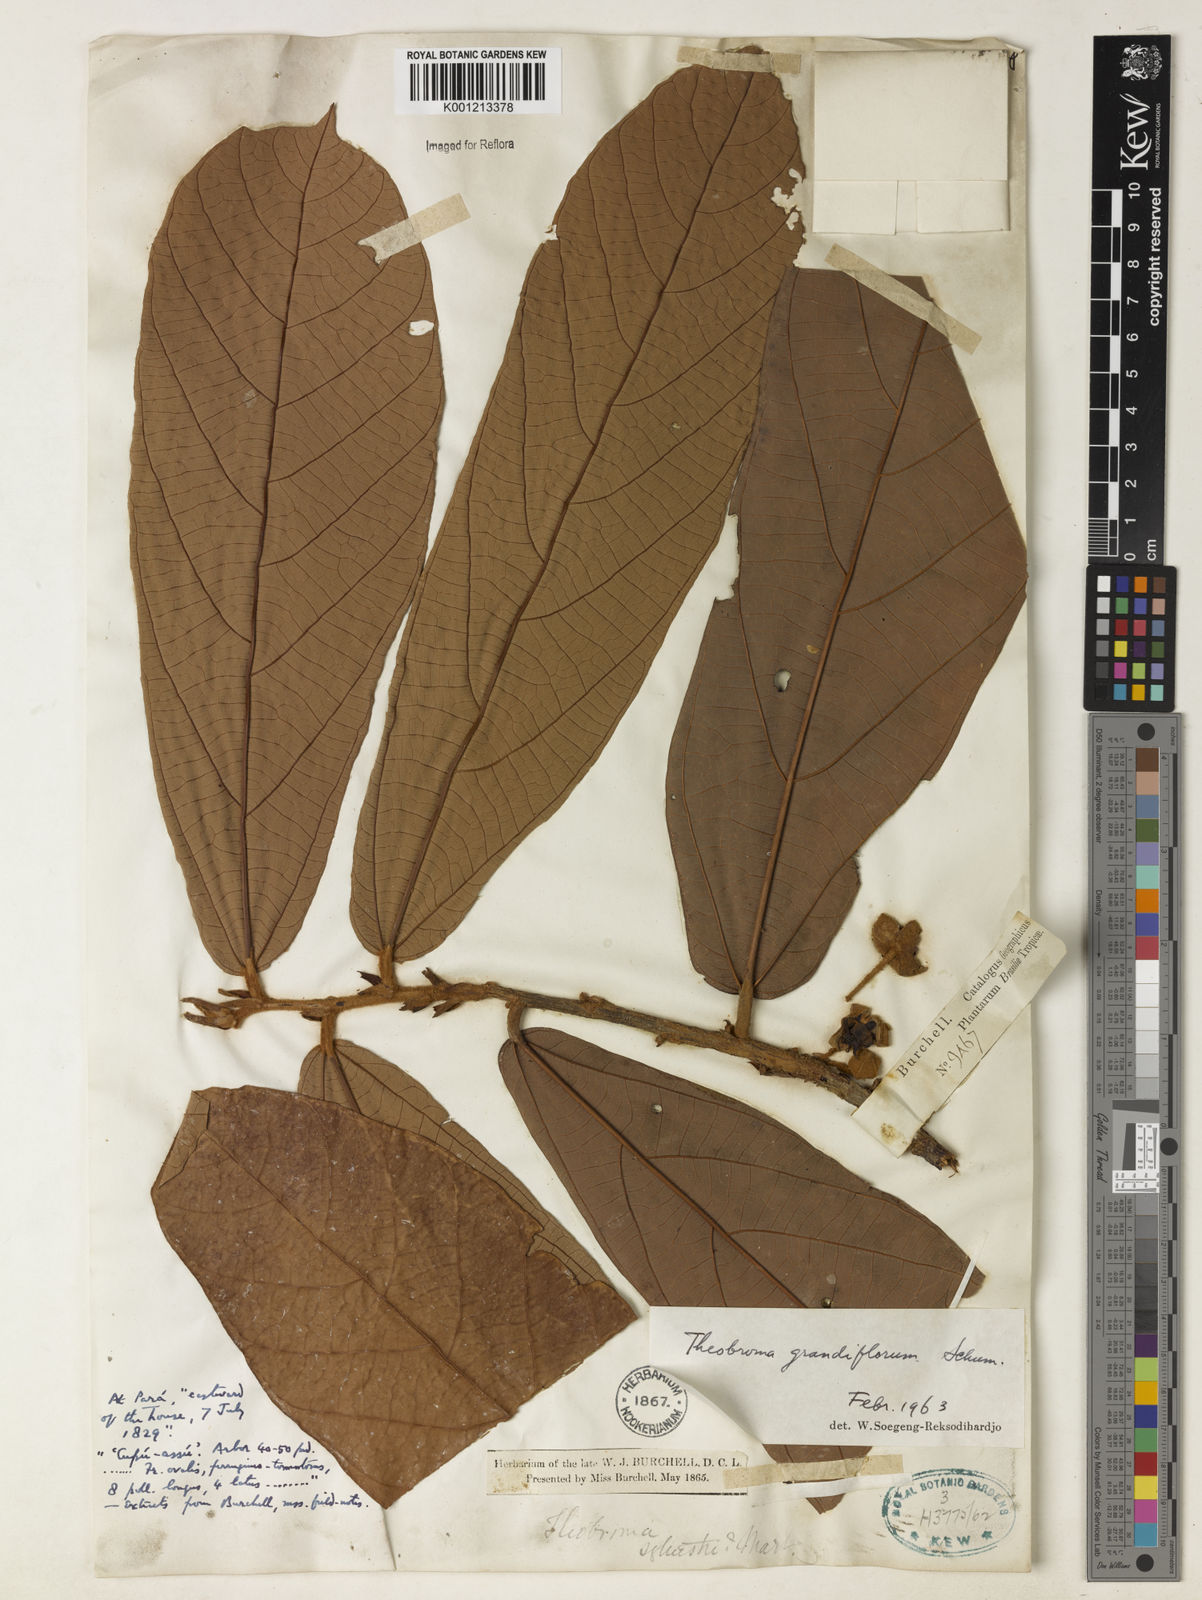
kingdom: Plantae
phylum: Tracheophyta
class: Magnoliopsida
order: Malvales
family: Malvaceae
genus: Theobroma
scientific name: Theobroma grandiflorum
